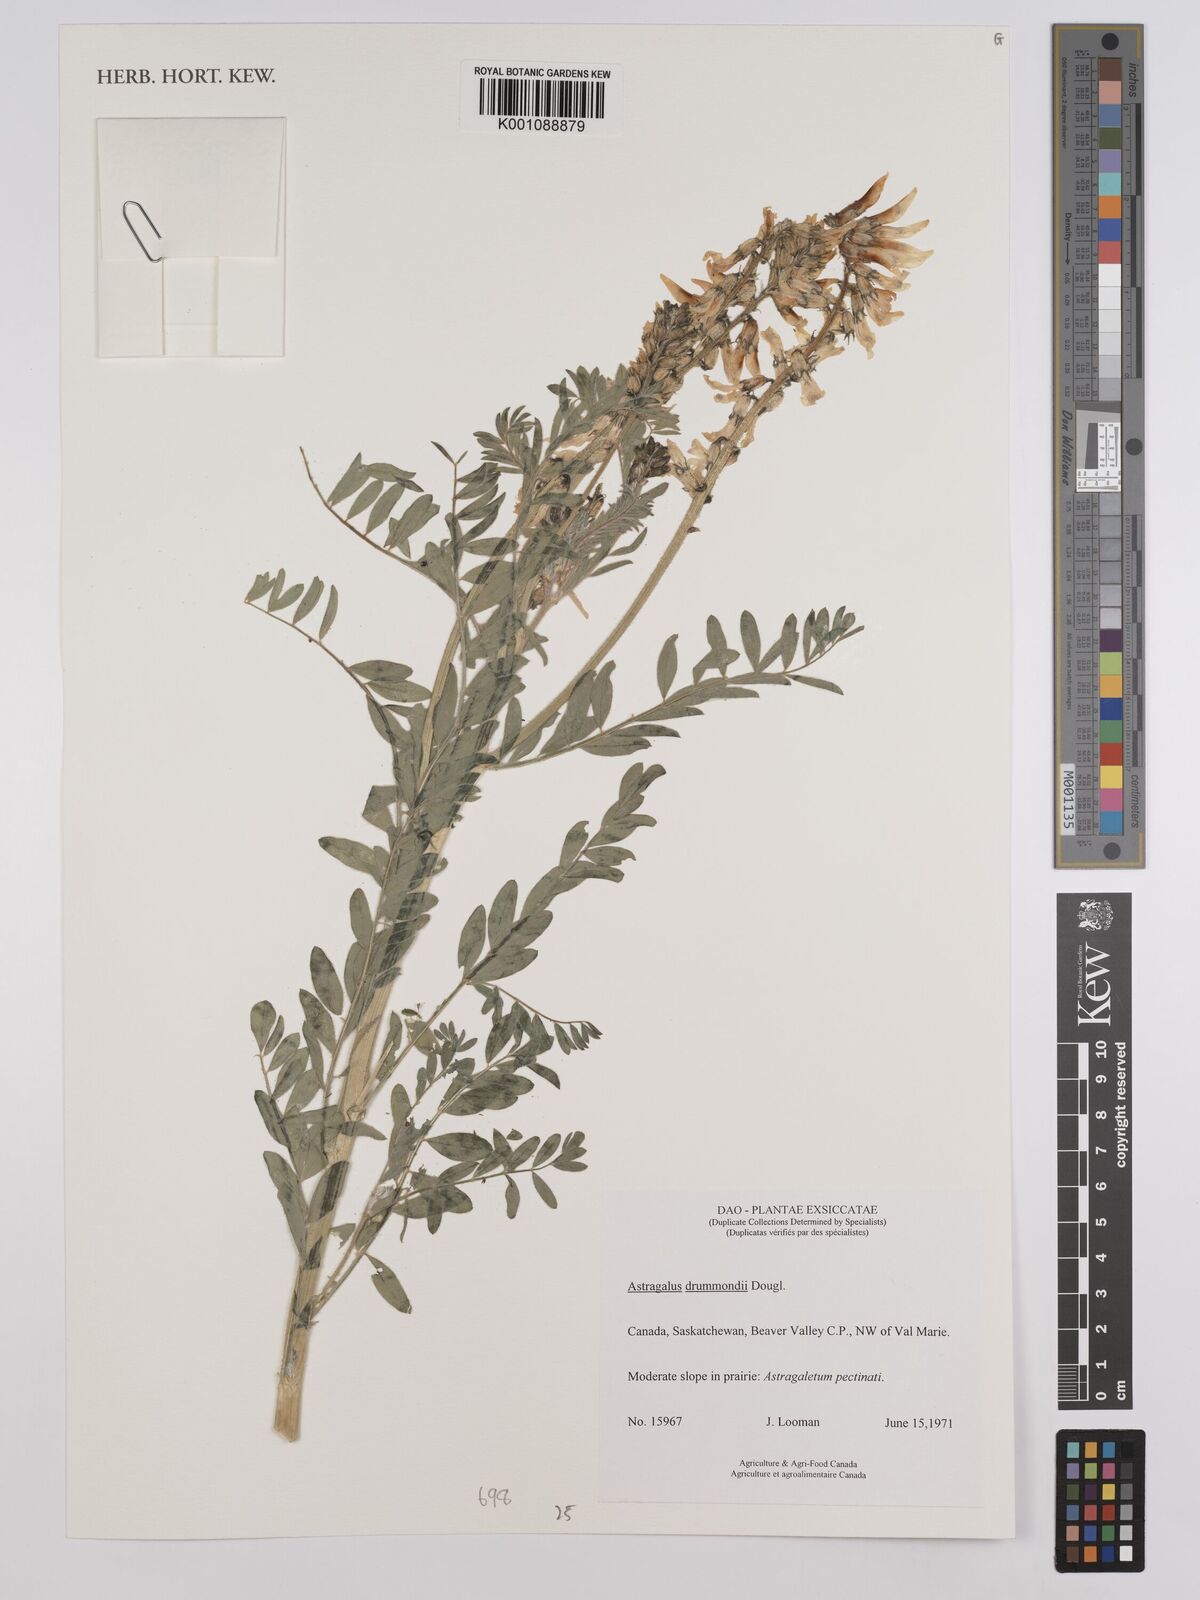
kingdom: Plantae
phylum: Tracheophyta
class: Magnoliopsida
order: Fabales
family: Fabaceae
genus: Astragalus
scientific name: Astragalus
